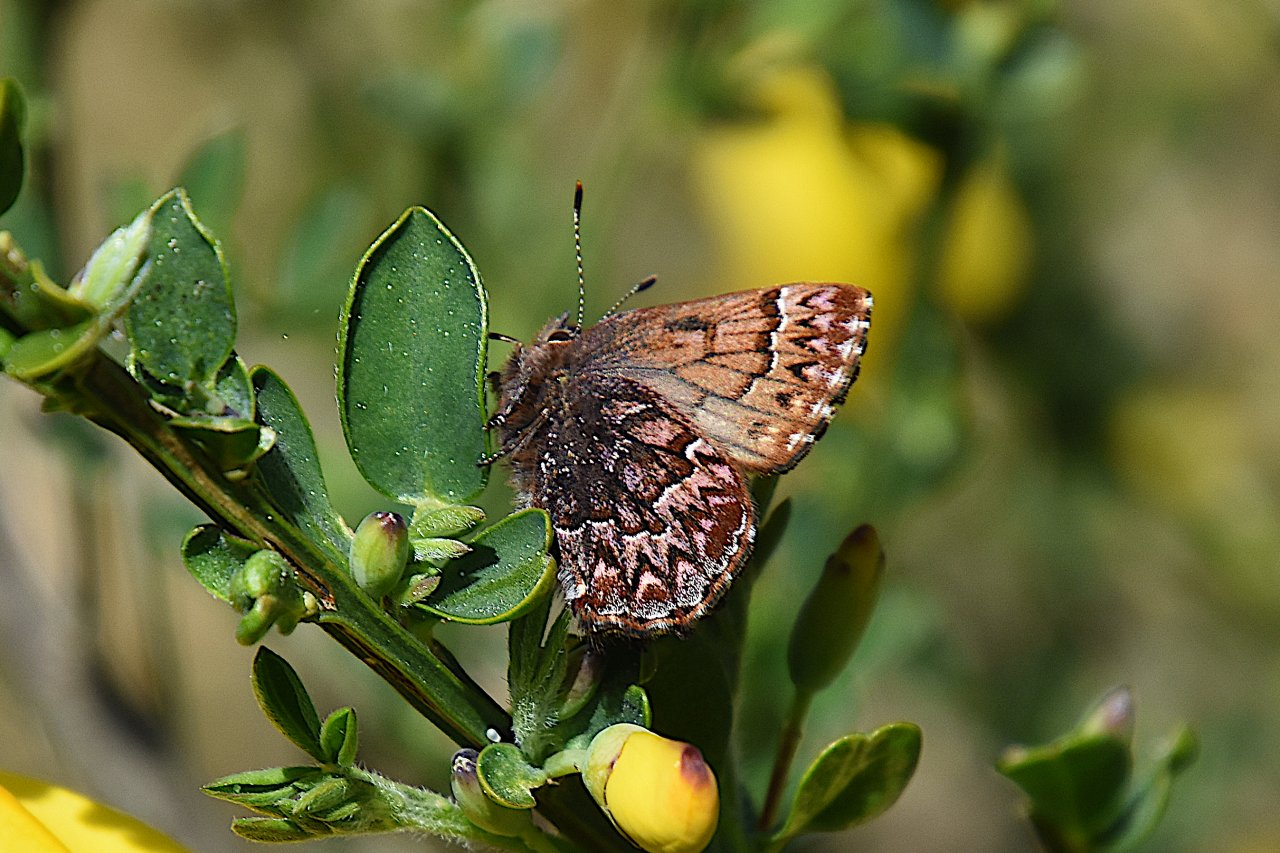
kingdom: Animalia
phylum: Arthropoda
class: Insecta
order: Lepidoptera
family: Lycaenidae
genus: Incisalia
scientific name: Incisalia eryphon
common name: Western Pine Elfin
